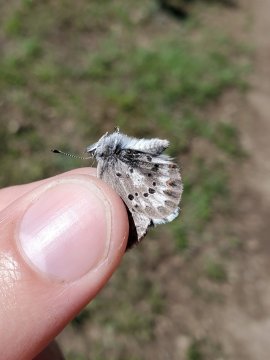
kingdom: Animalia
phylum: Arthropoda
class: Insecta
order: Lepidoptera
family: Lycaenidae
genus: Glaucopsyche
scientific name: Glaucopsyche piasus
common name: Arrowhead Blue
